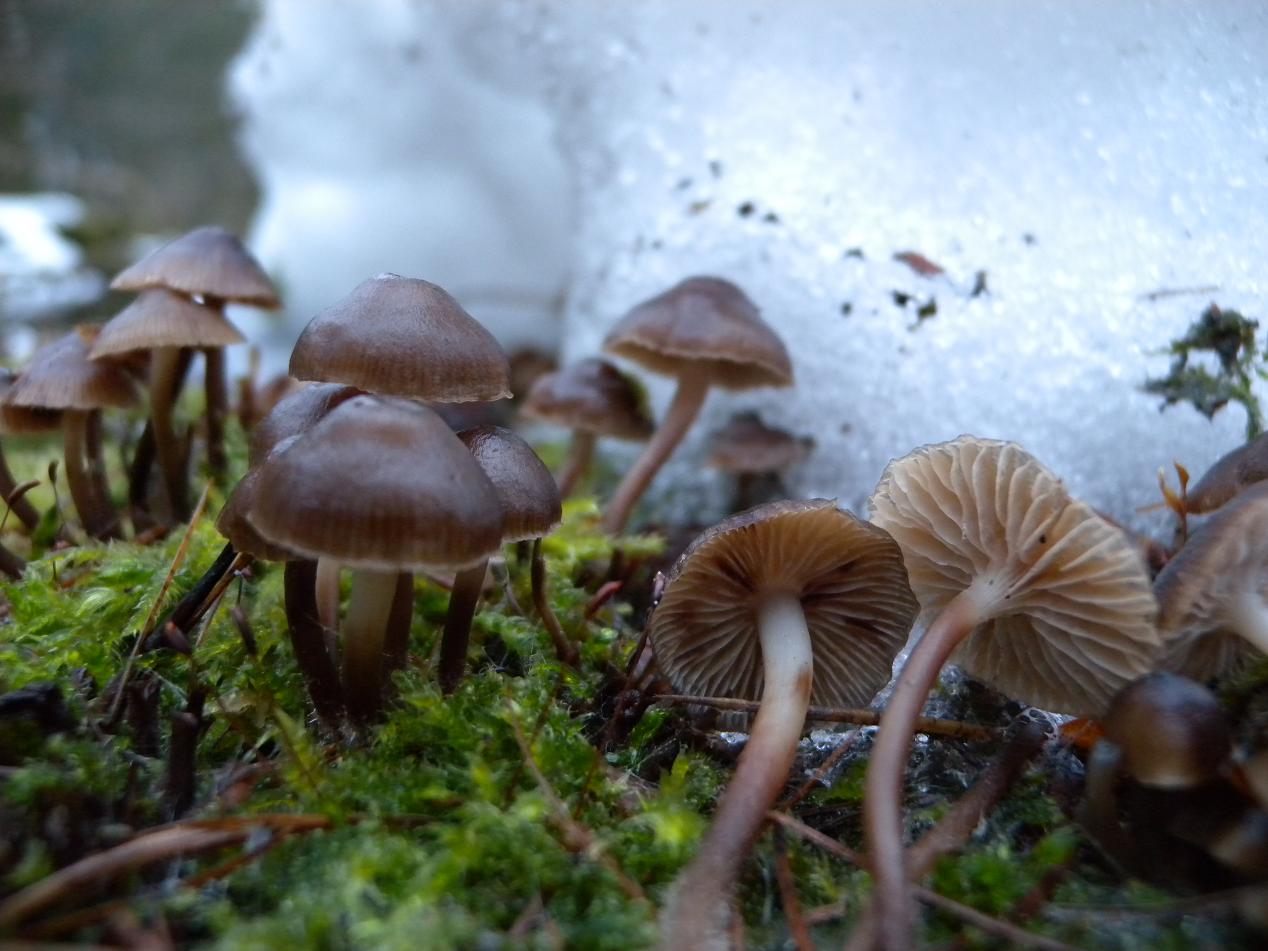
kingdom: Fungi
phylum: Basidiomycota
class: Agaricomycetes
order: Agaricales
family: Mycenaceae
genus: Mycena
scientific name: Mycena tintinnabulum
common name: vinter-huesvamp
